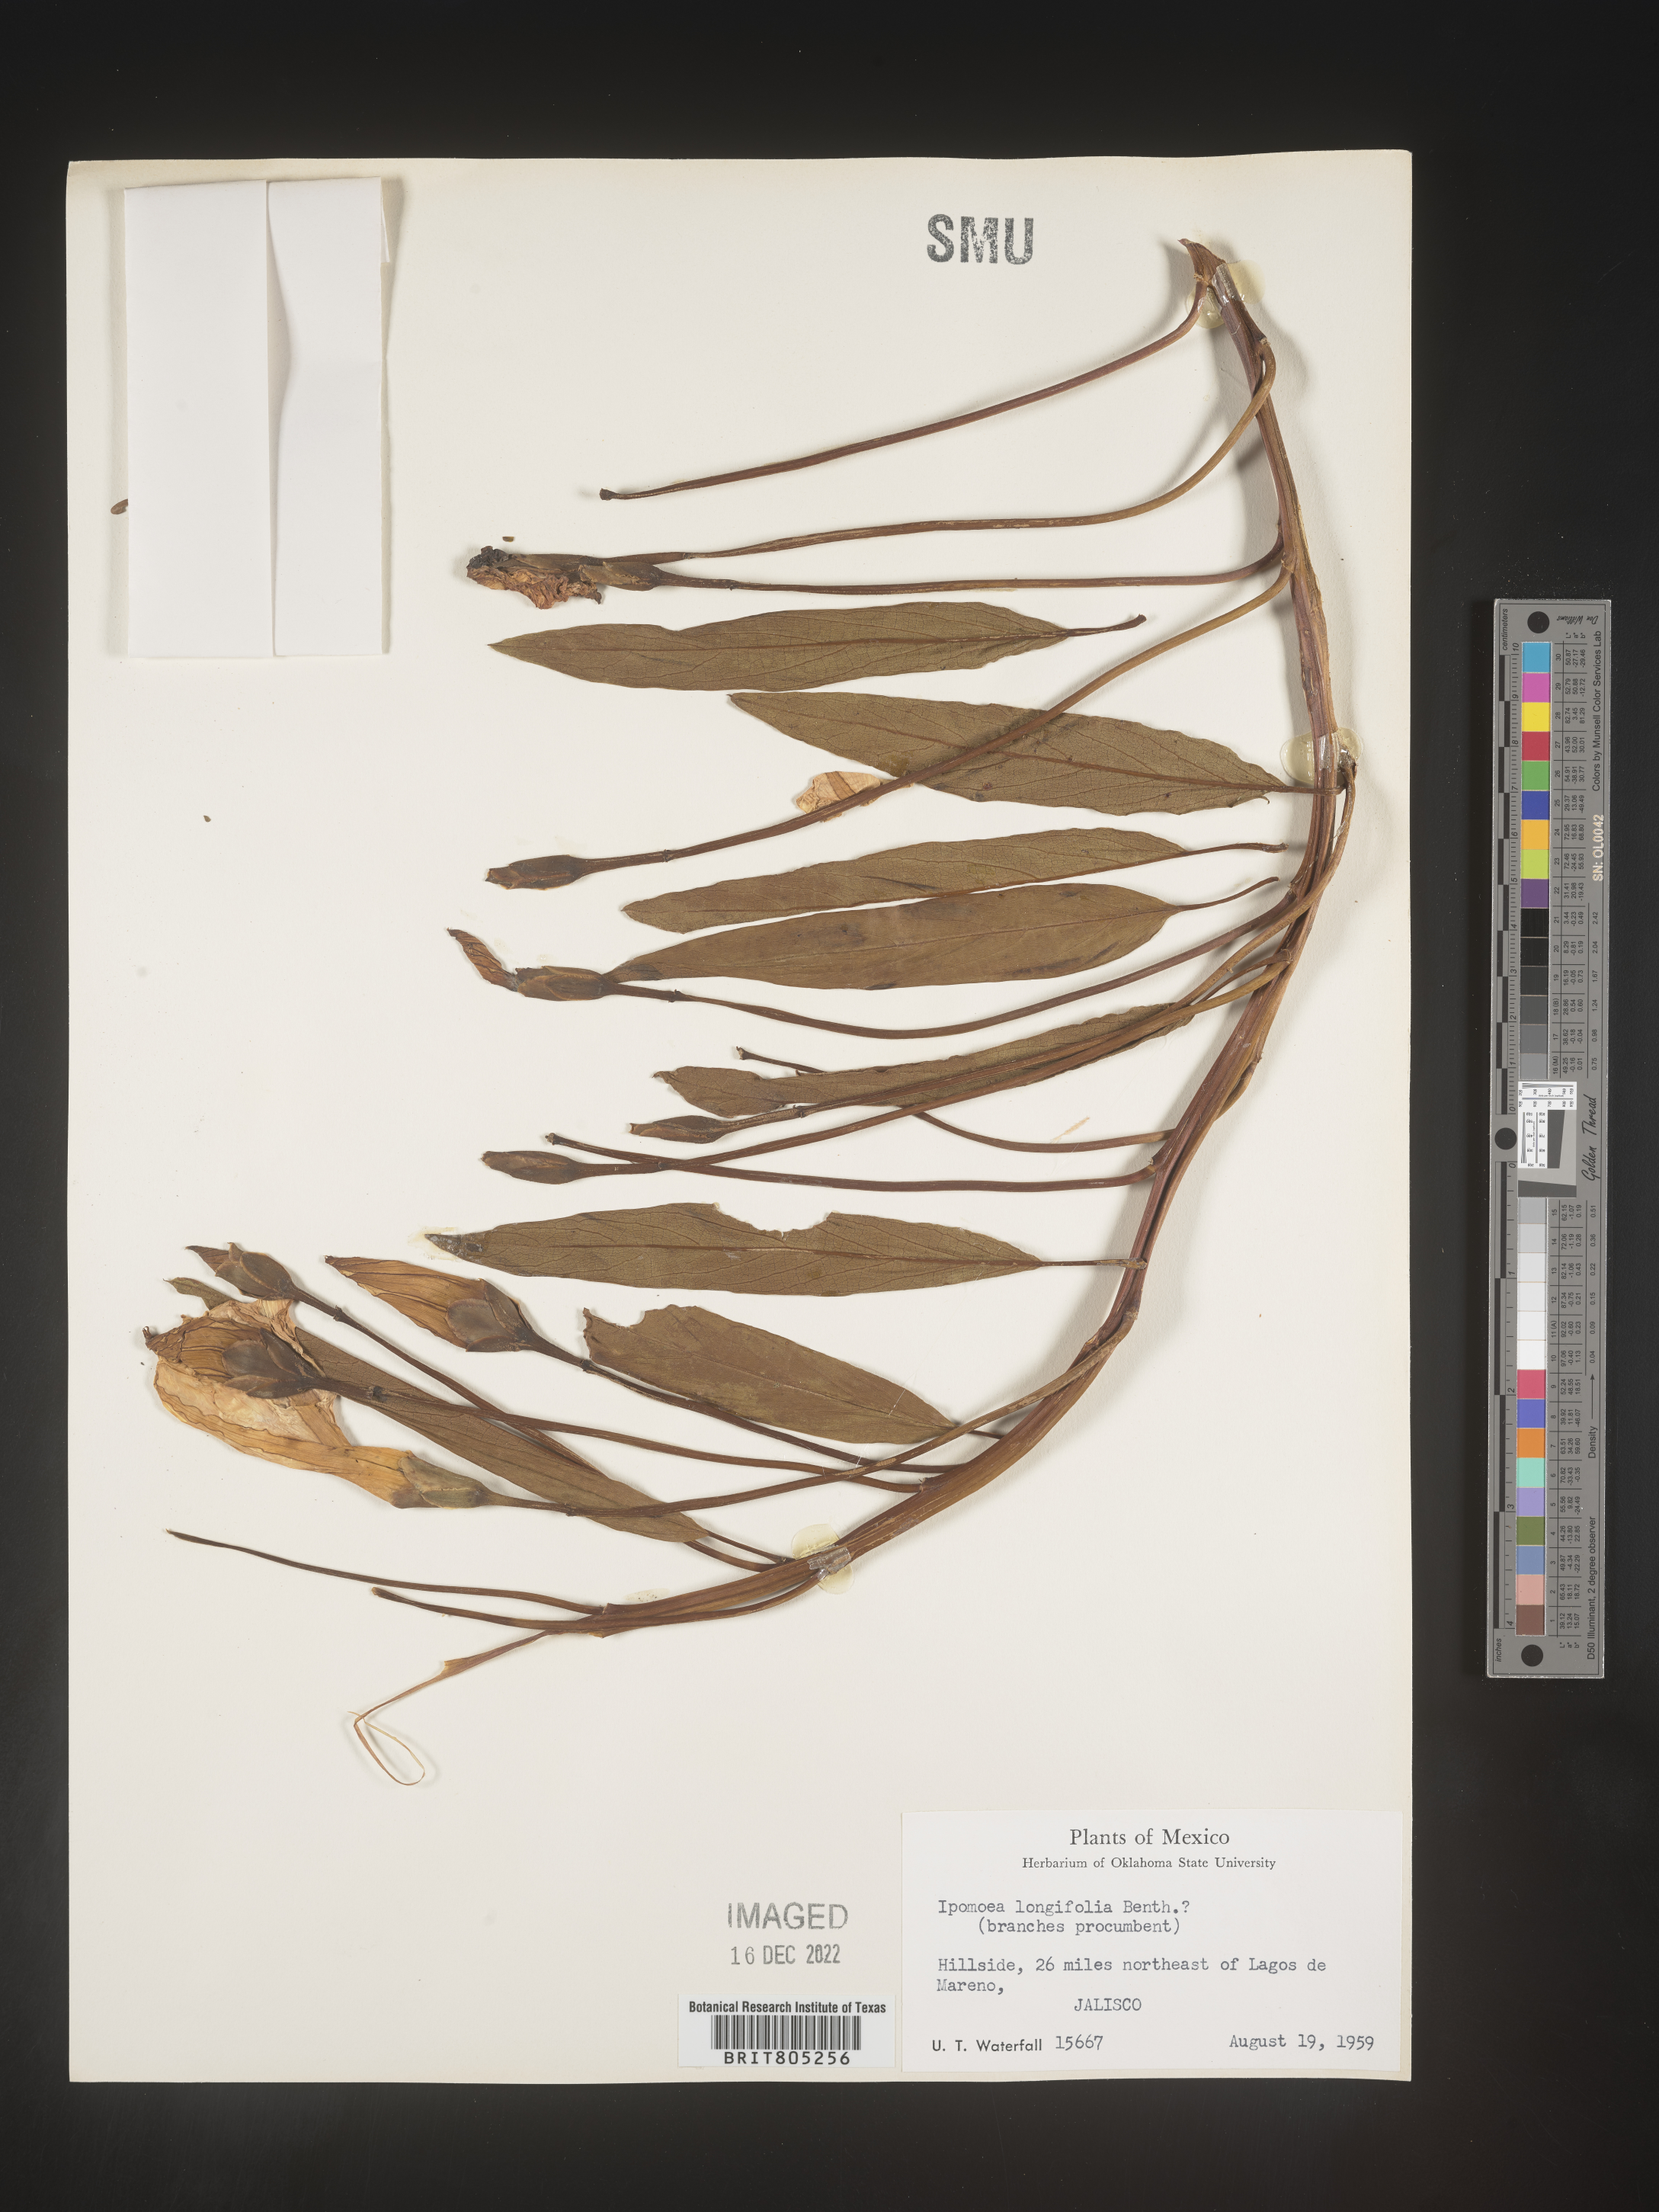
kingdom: Plantae
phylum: Tracheophyta
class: Magnoliopsida
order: Solanales
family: Convolvulaceae
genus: Ipomoea
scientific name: Ipomoea
